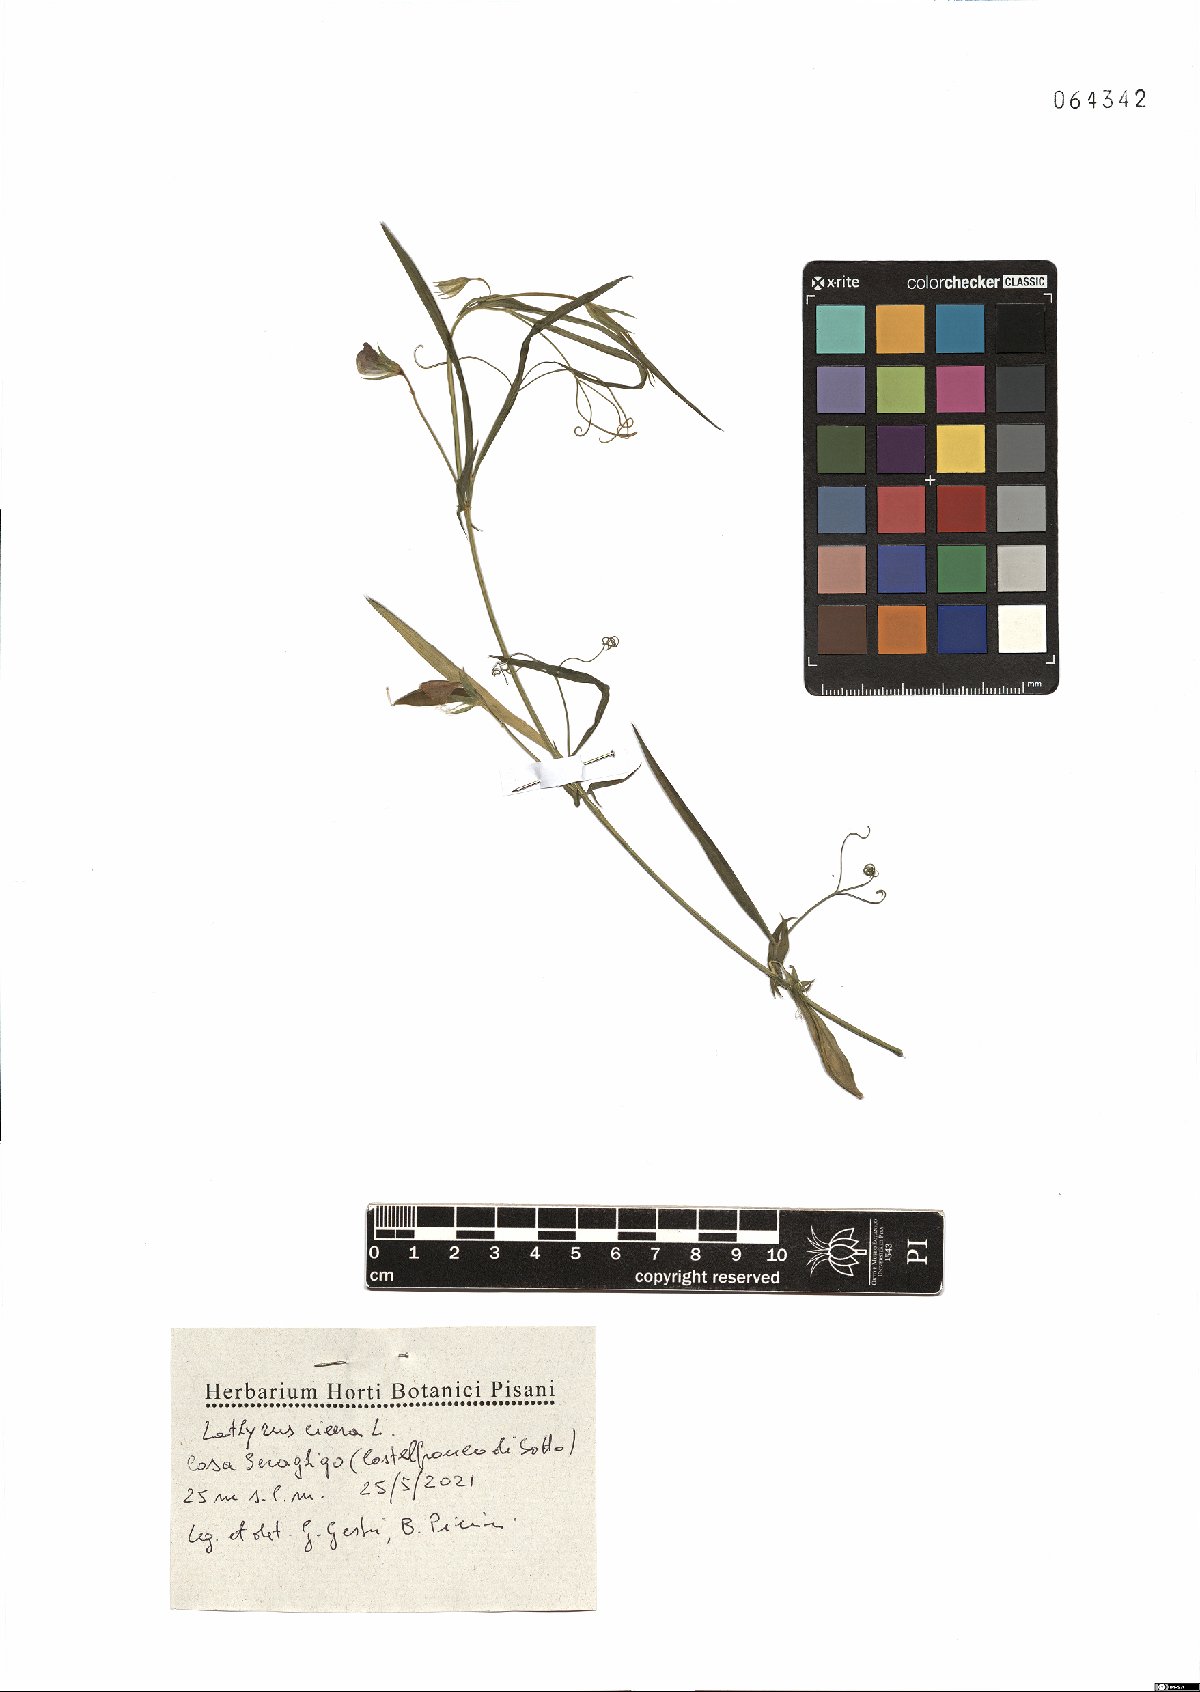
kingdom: Plantae
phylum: Tracheophyta
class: Magnoliopsida
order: Fabales
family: Fabaceae
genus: Lathyrus
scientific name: Lathyrus cicera
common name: Red vetchling
